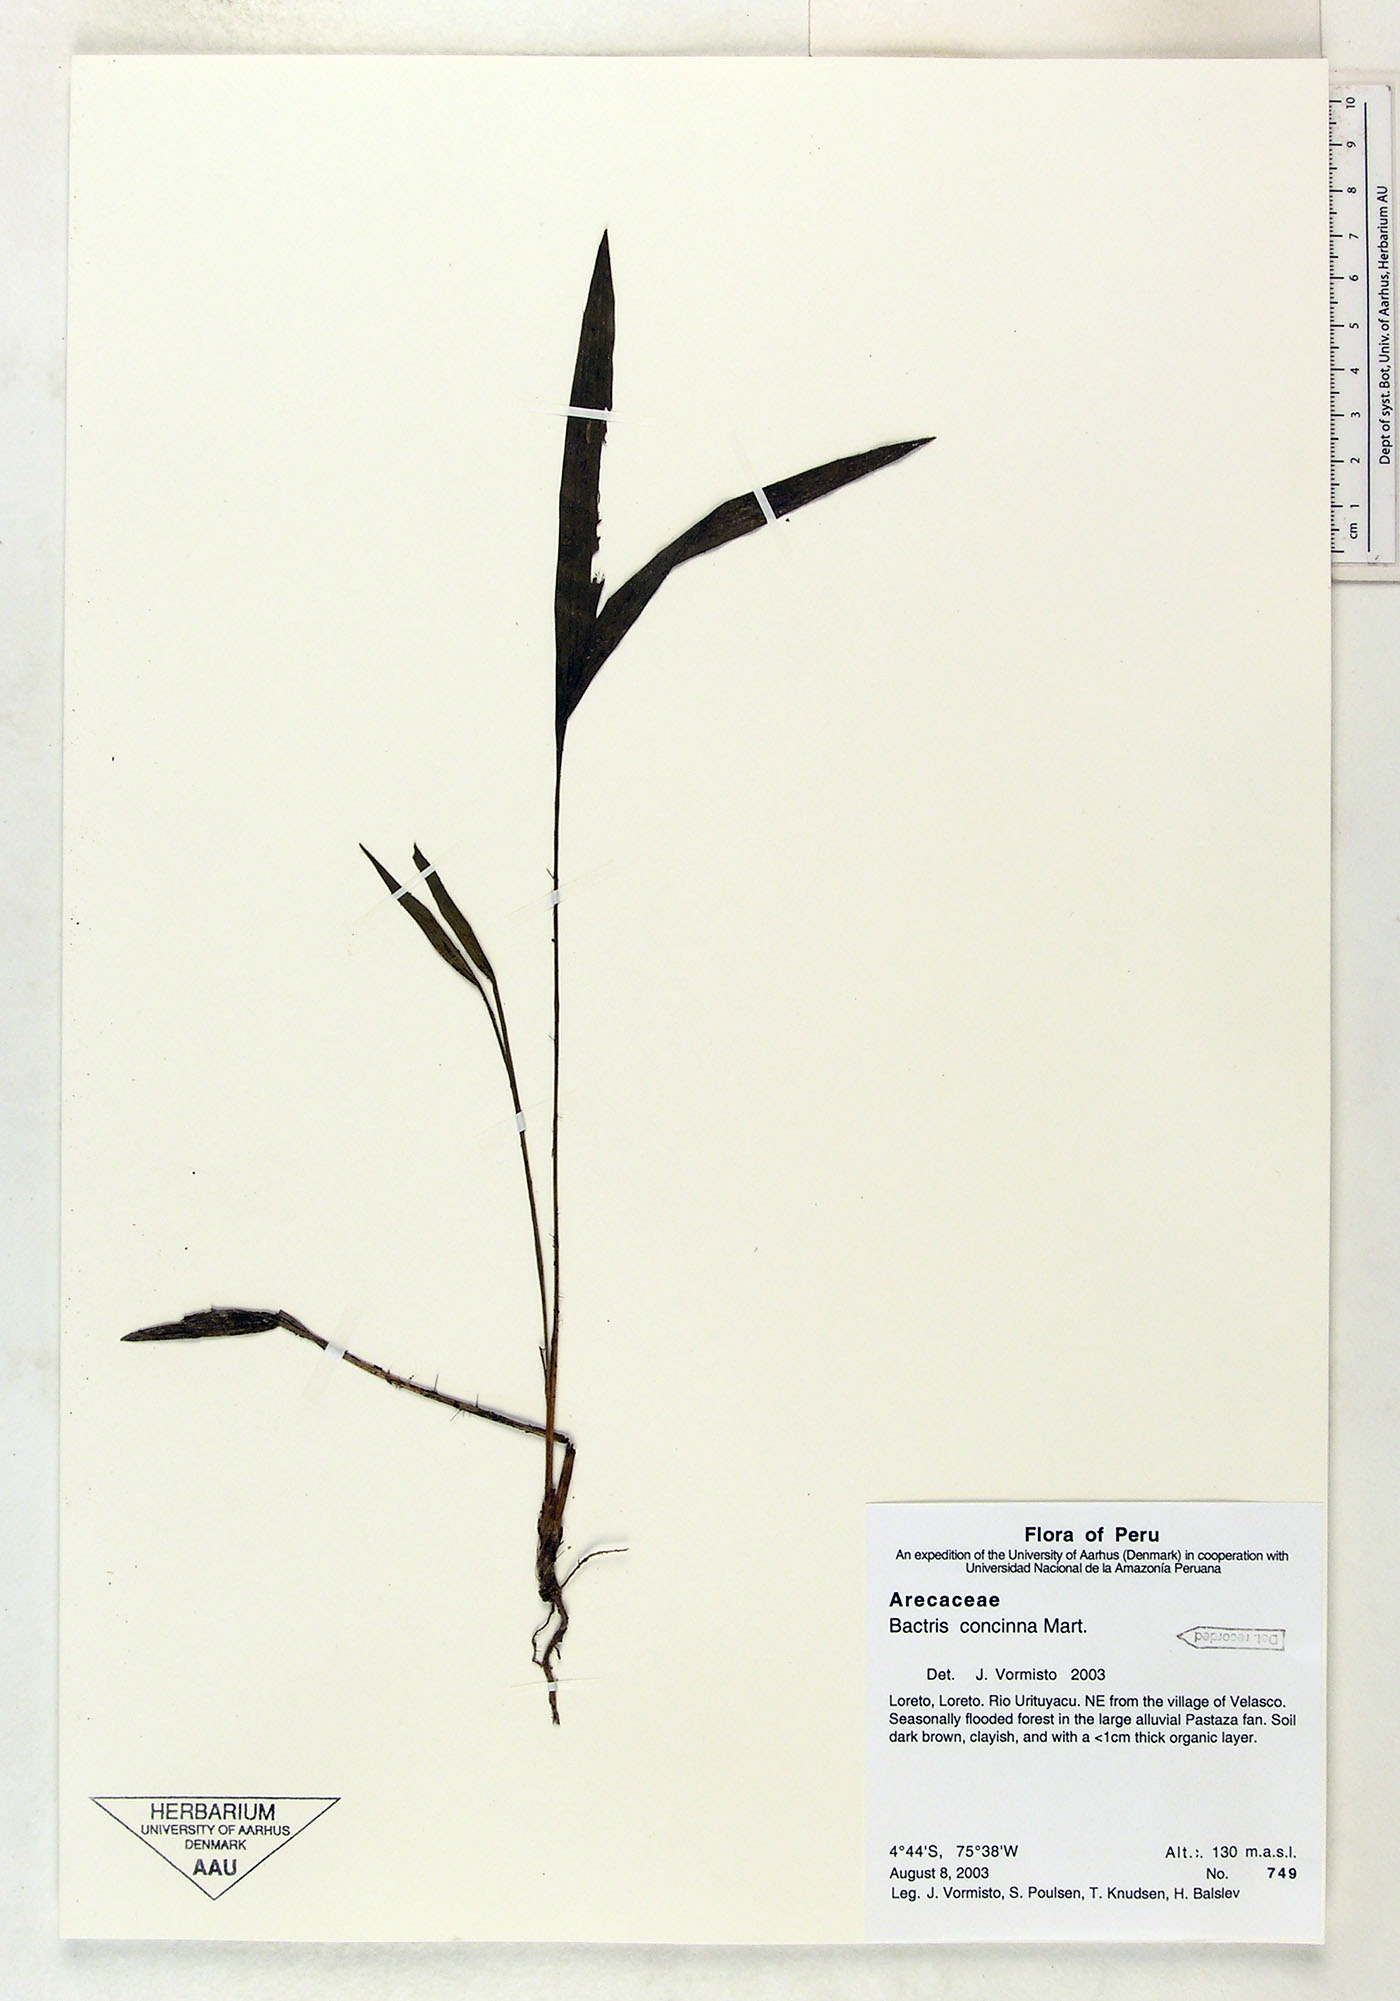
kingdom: Plantae
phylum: Tracheophyta
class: Liliopsida
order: Arecales
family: Arecaceae
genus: Bactris
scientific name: Bactris concinna
